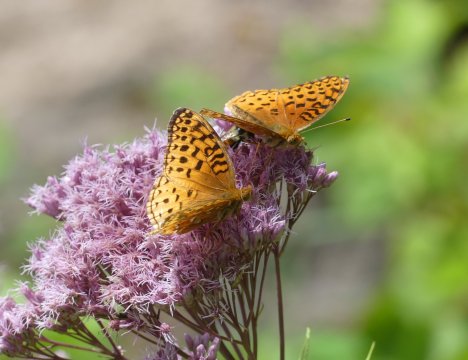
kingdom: Animalia
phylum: Arthropoda
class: Insecta
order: Lepidoptera
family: Nymphalidae
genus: Speyeria
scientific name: Speyeria aphrodite
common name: Aphrodite Fritillary
